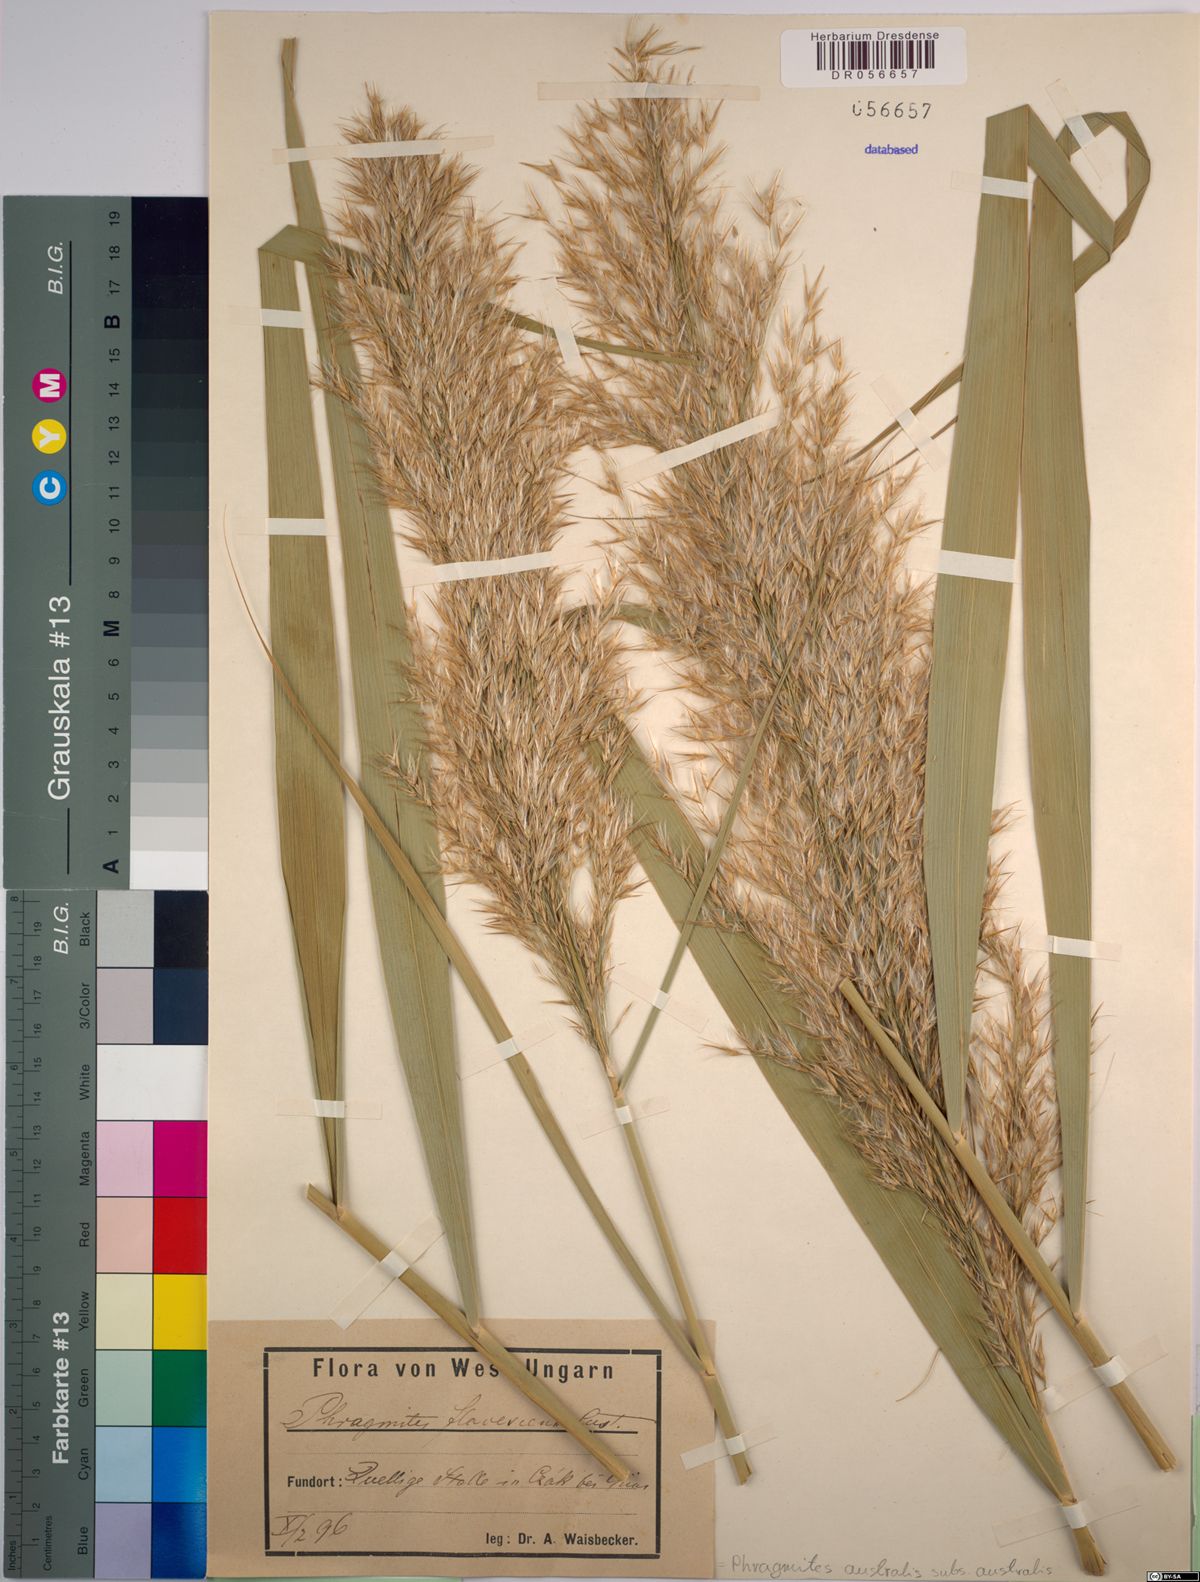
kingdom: Plantae
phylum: Tracheophyta
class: Liliopsida
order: Poales
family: Poaceae
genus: Phragmites
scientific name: Phragmites australis
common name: Common reed
